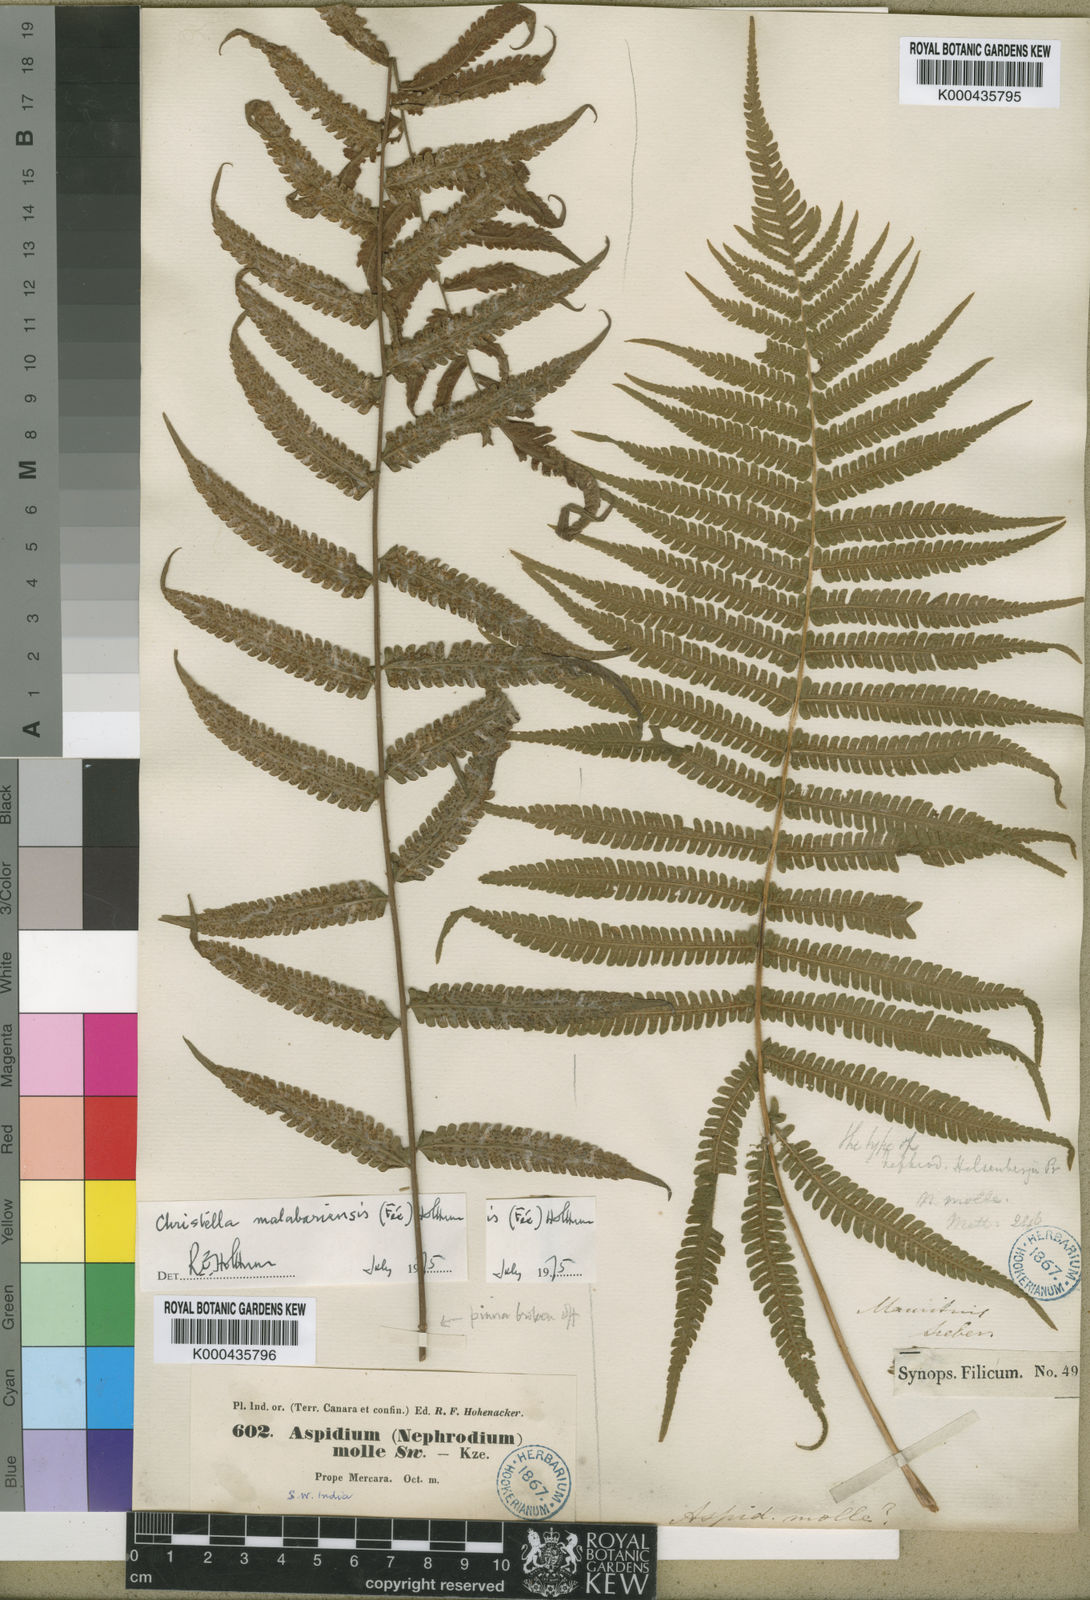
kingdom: Plantae
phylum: Tracheophyta
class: Polypodiopsida
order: Polypodiales
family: Thelypteridaceae
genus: Christella
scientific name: Christella hispidula
